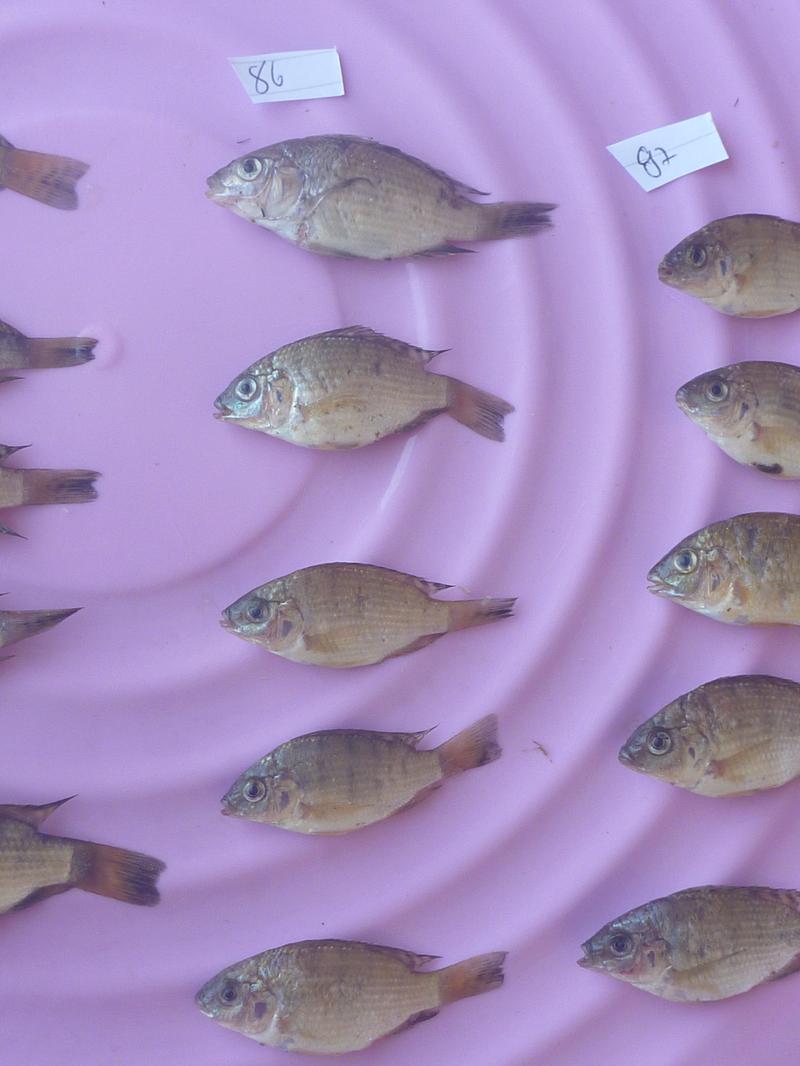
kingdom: Animalia
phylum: Chordata
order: Perciformes
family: Cichlidae
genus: Oreochromis
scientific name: Oreochromis shiranus
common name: Chilwa tilapia
